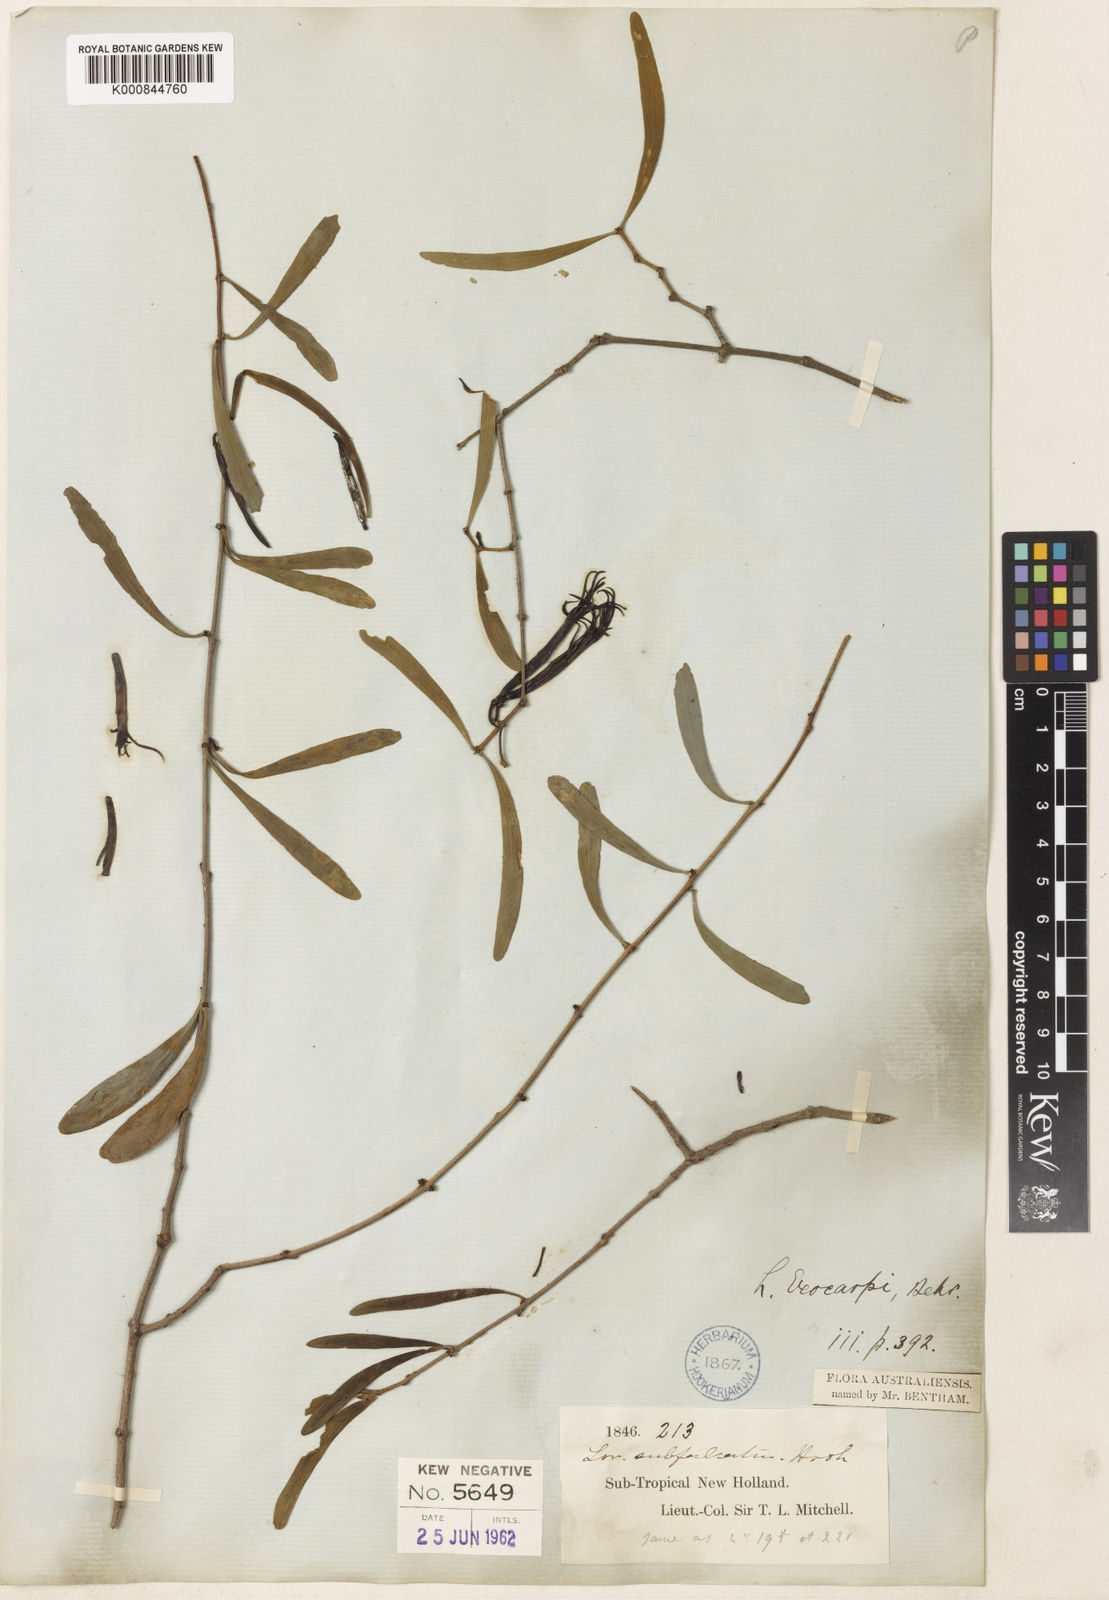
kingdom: Plantae
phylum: Tracheophyta
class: Magnoliopsida
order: Santalales
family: Loranthaceae
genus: Lysiana
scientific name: Lysiana exocarpi
